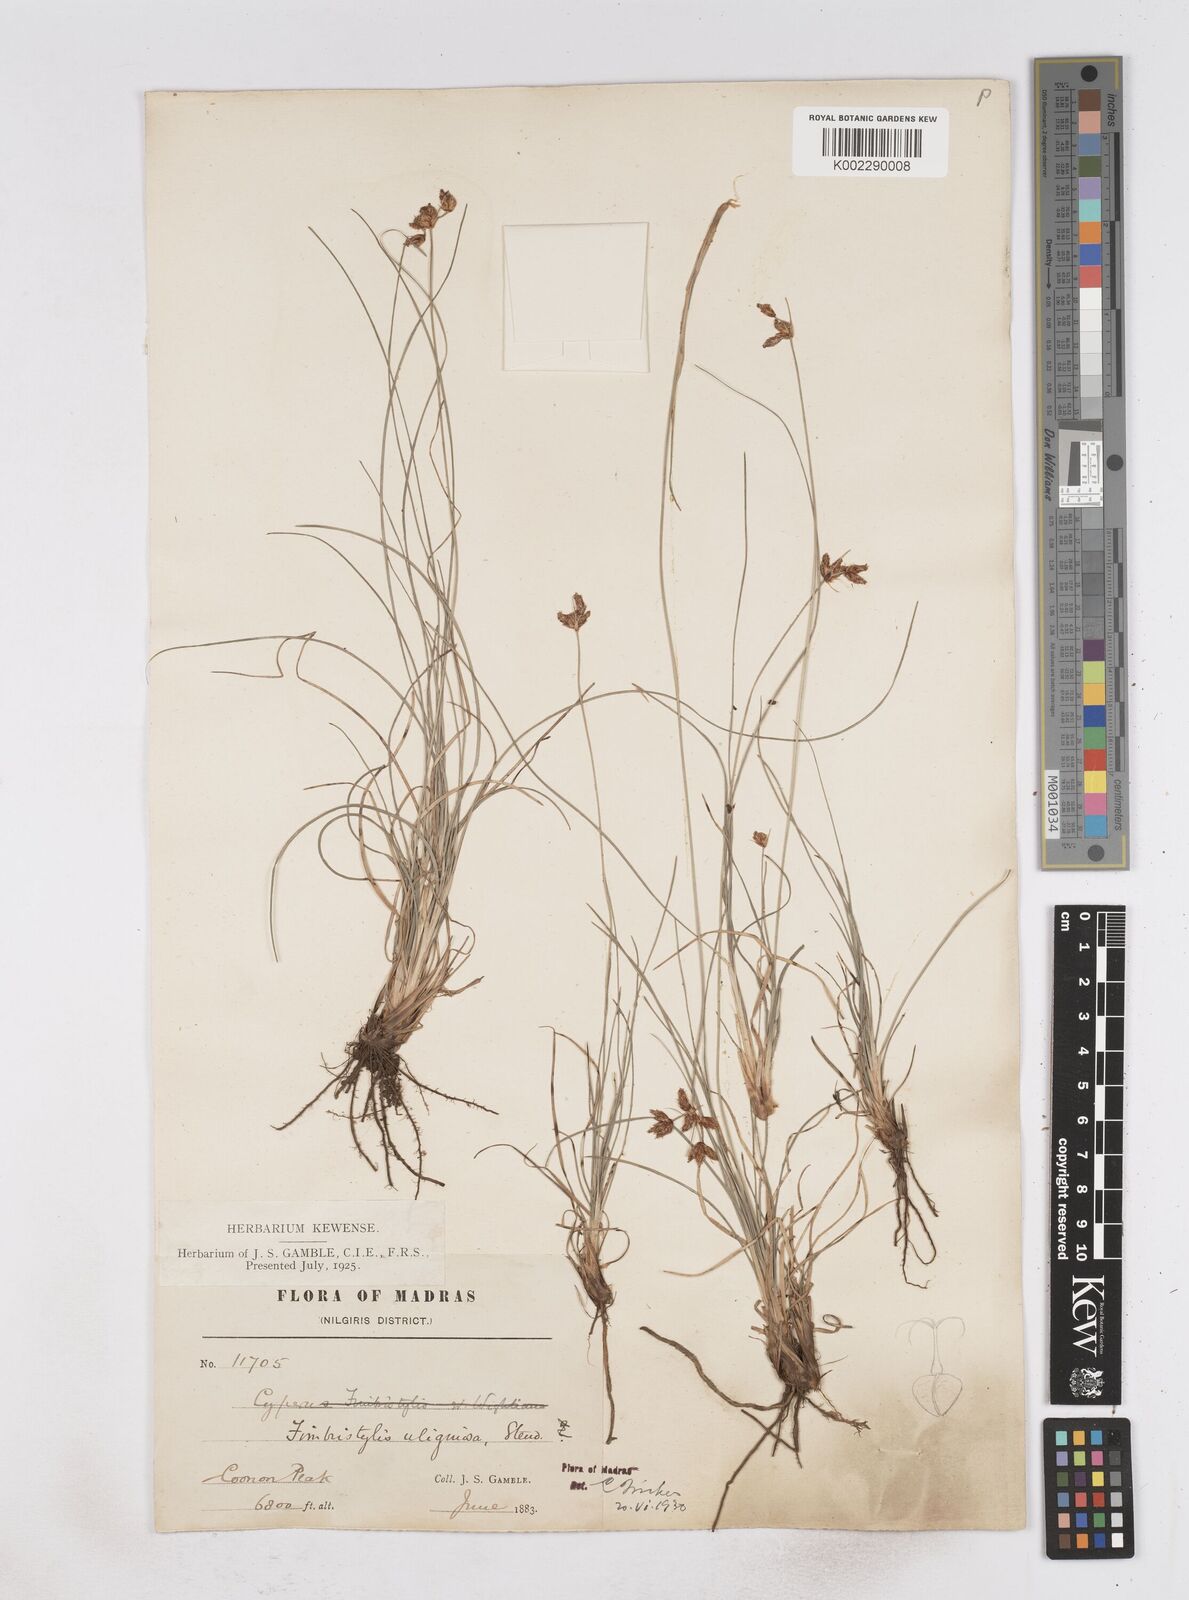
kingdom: Plantae
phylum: Tracheophyta
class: Liliopsida
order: Poales
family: Cyperaceae
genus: Fimbristylis
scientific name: Fimbristylis uliginosa
